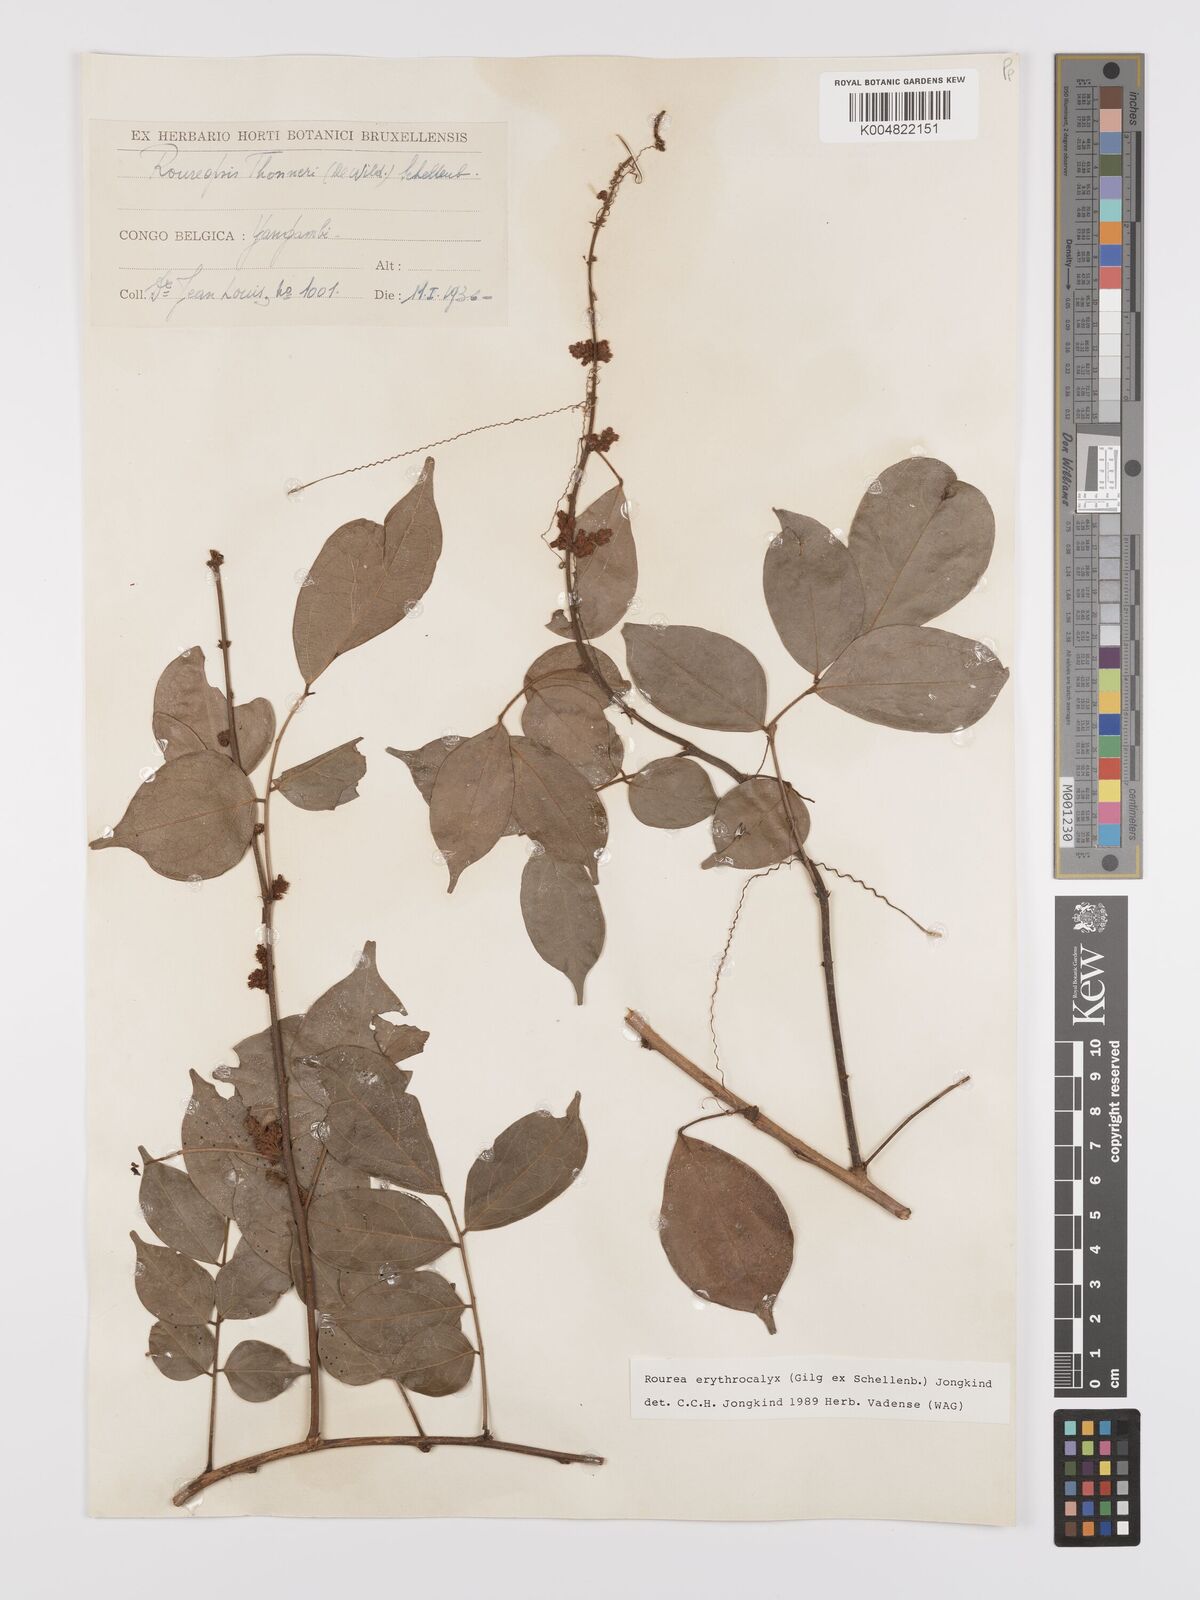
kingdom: Plantae
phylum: Tracheophyta
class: Magnoliopsida
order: Oxalidales
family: Connaraceae
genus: Rourea
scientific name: Rourea erythrocalyx
